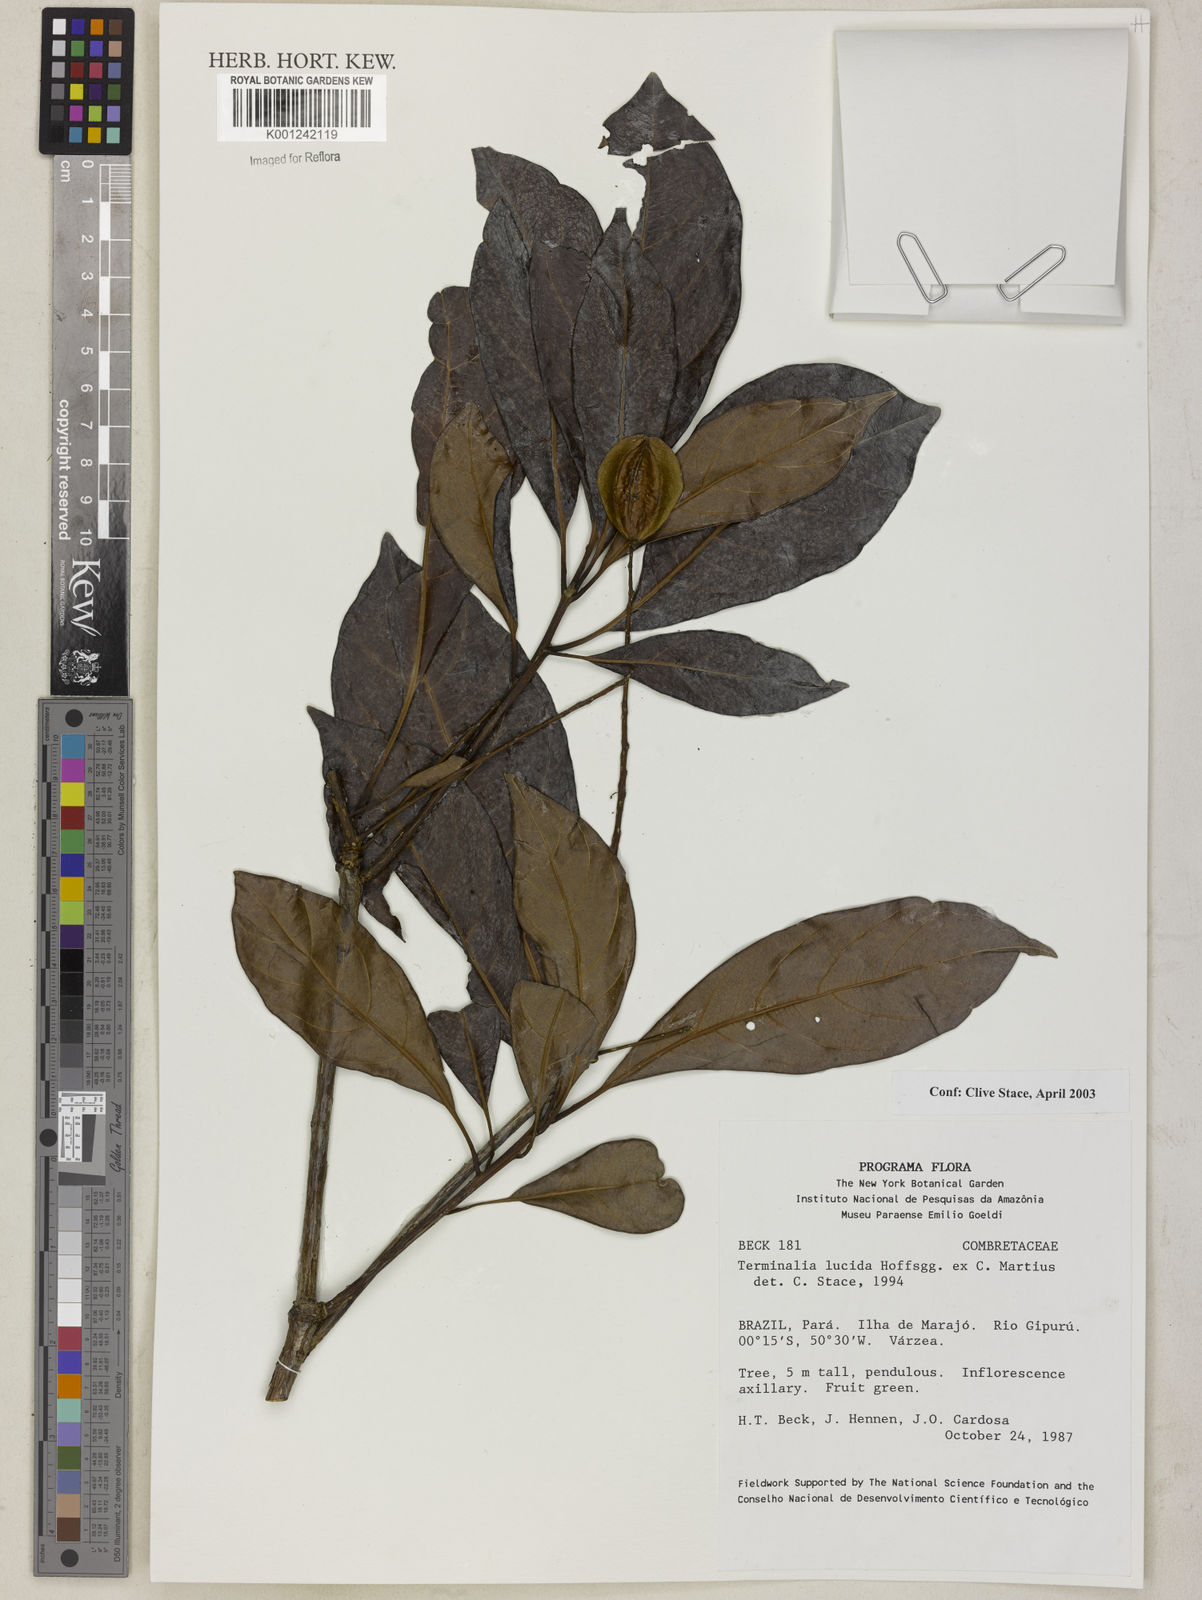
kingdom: Plantae
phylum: Tracheophyta
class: Magnoliopsida
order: Myrtales
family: Combretaceae
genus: Terminalia
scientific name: Terminalia lucida
